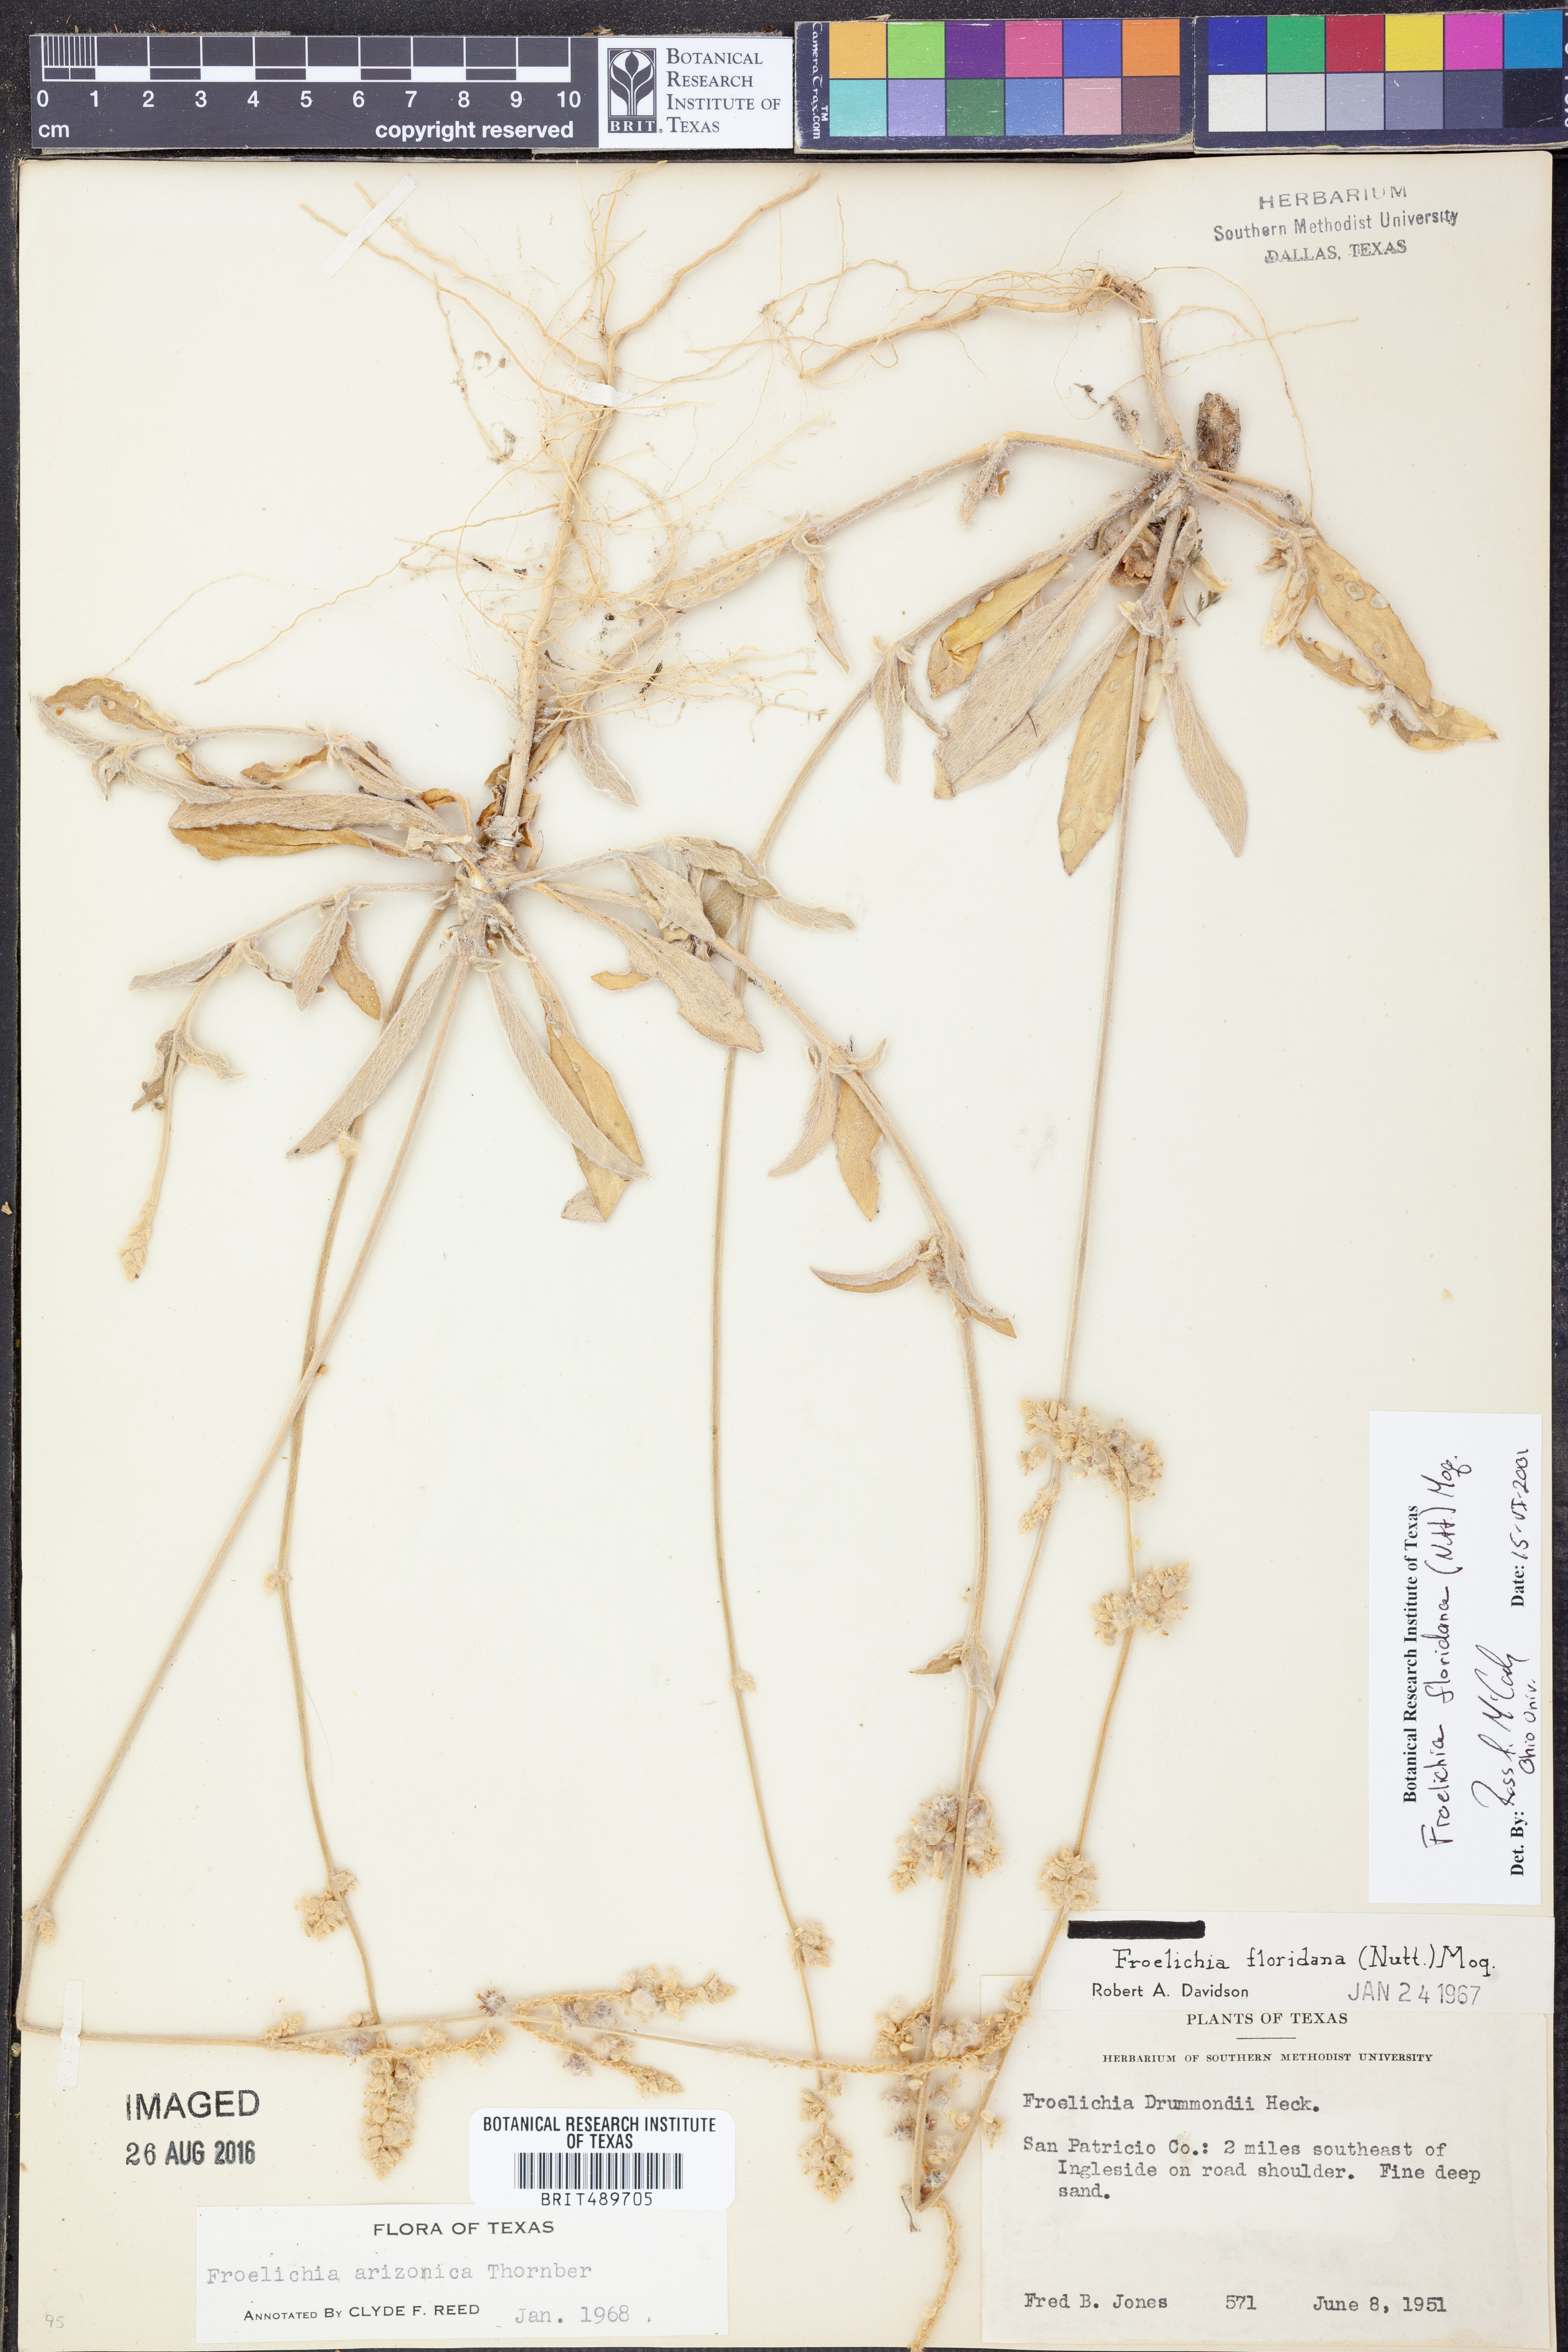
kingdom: Plantae
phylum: Tracheophyta
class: Magnoliopsida
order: Caryophyllales
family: Amaranthaceae
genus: Froelichia
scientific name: Froelichia floridana
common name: Florida snake-cotton
